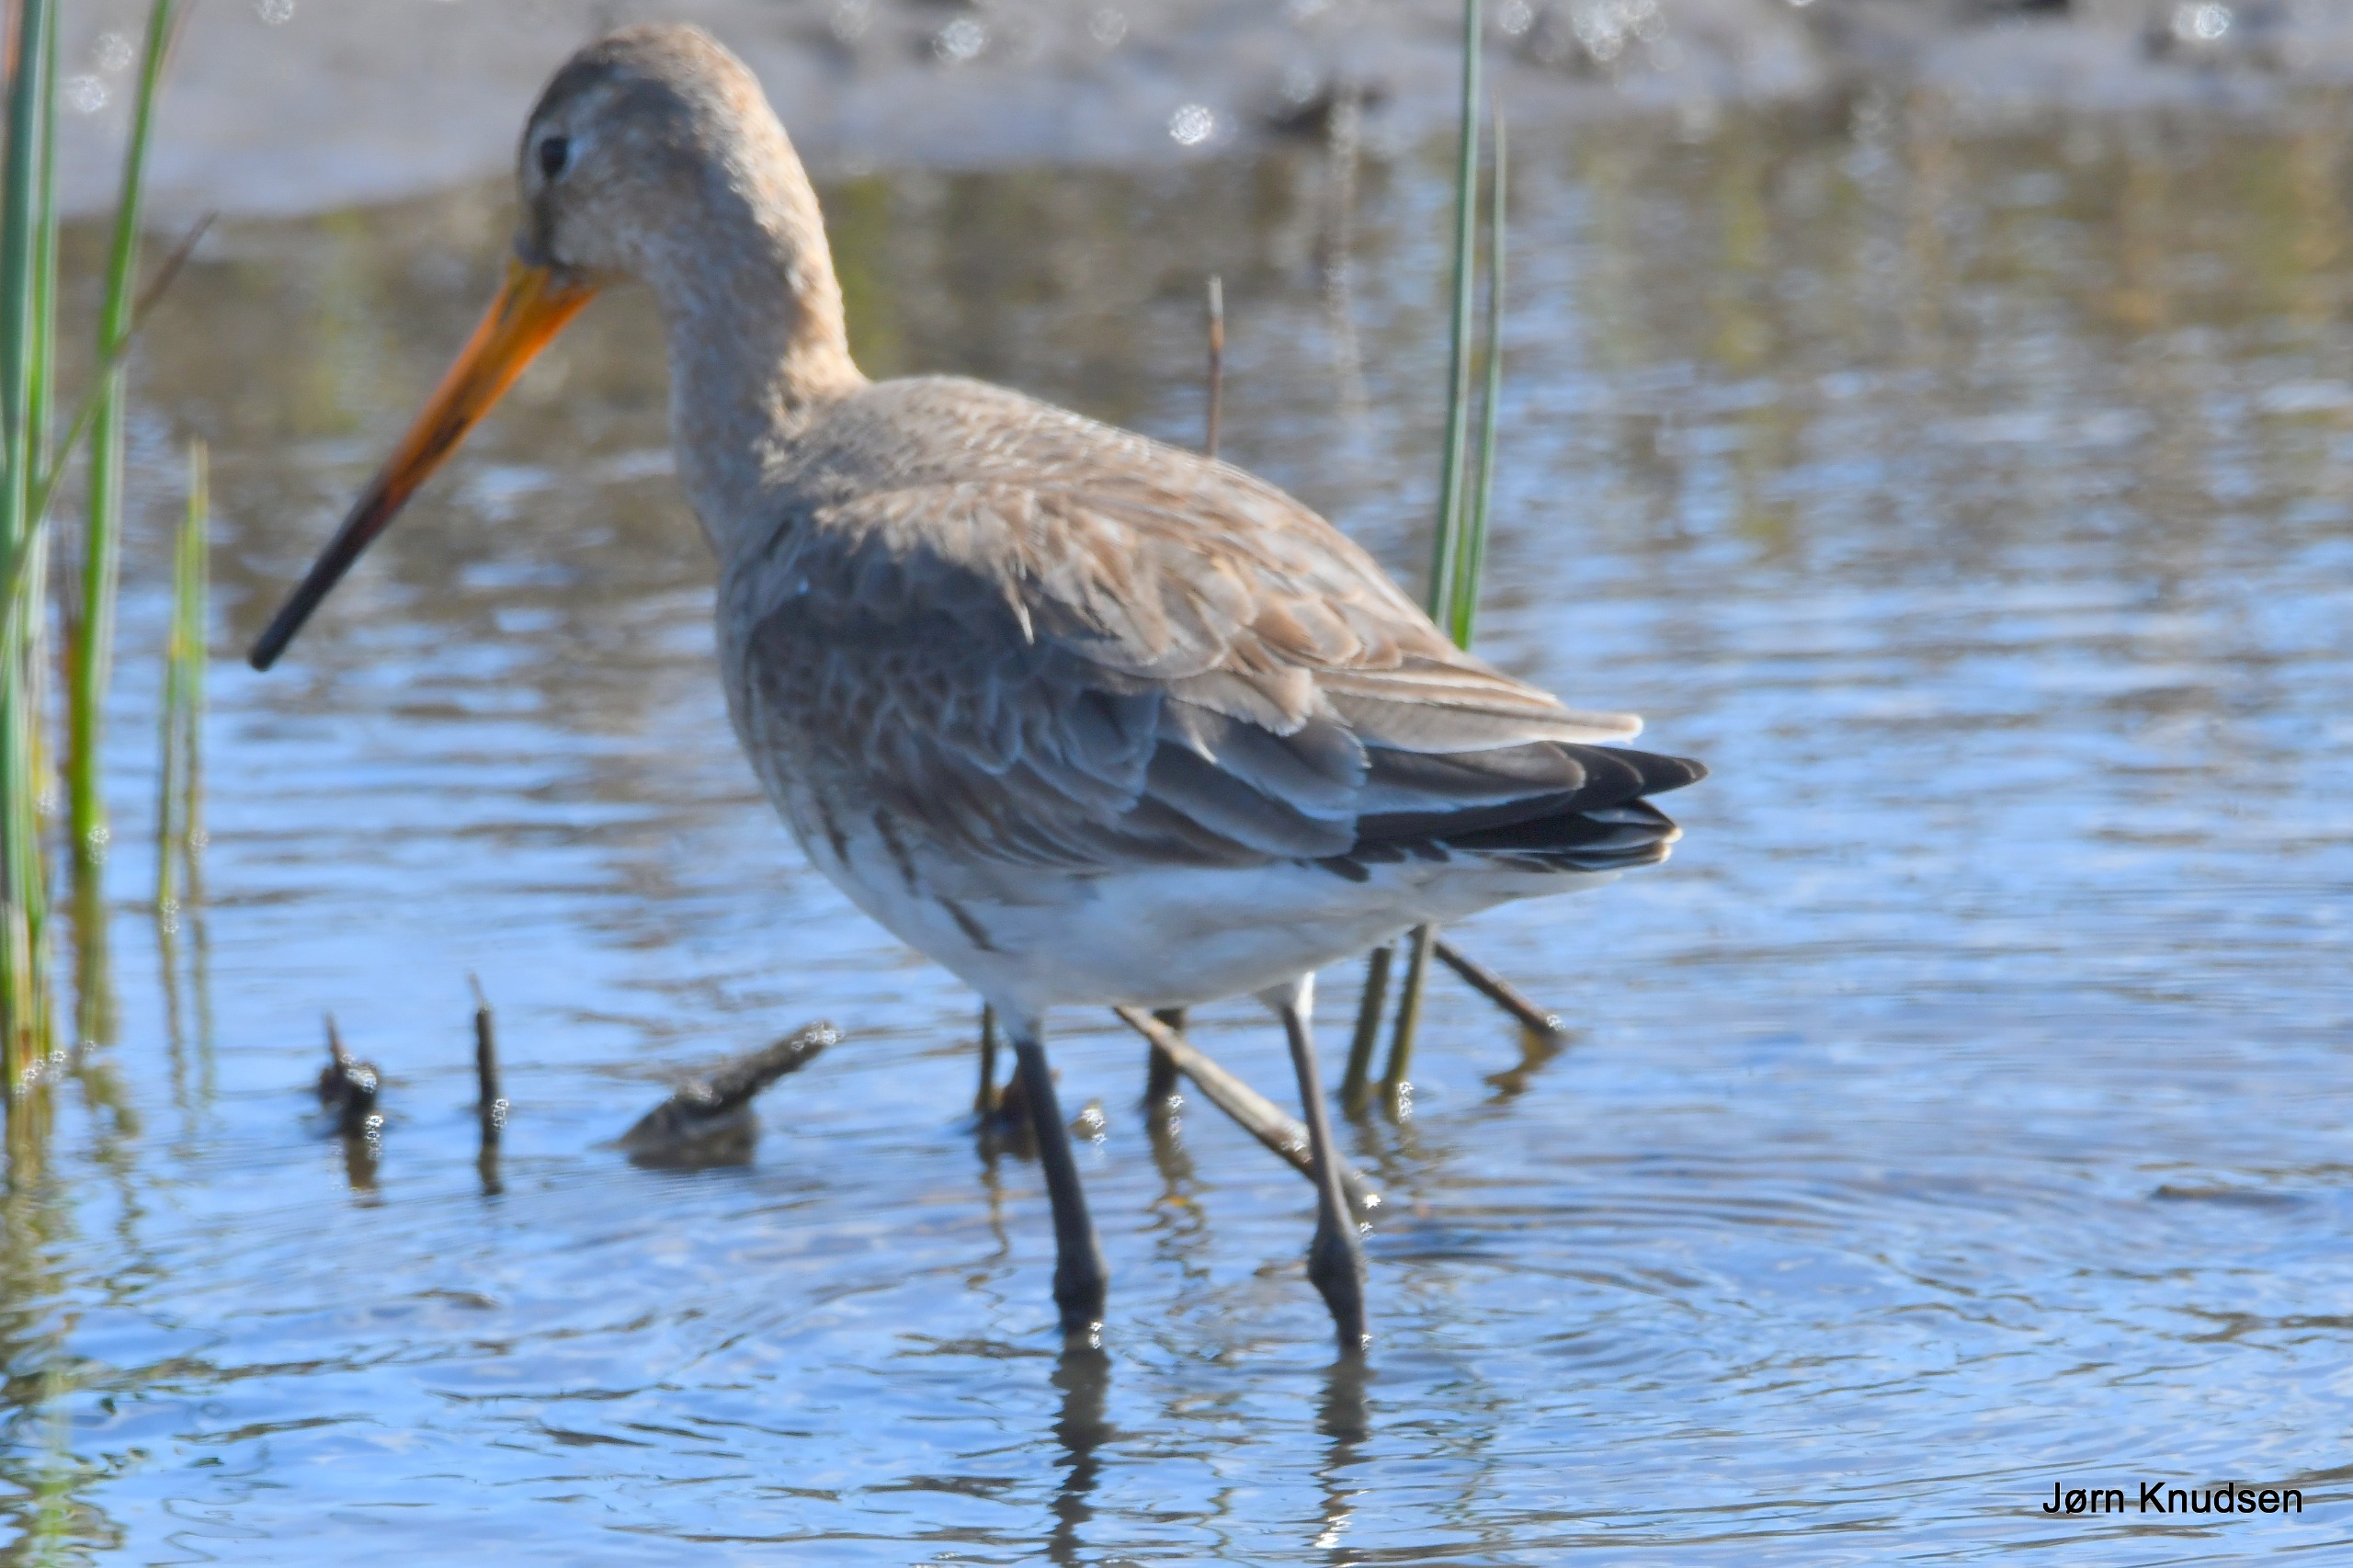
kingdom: Animalia
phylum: Chordata
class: Aves
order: Charadriiformes
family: Scolopacidae
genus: Limosa
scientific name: Limosa limosa
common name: Stor kobbersneppe
